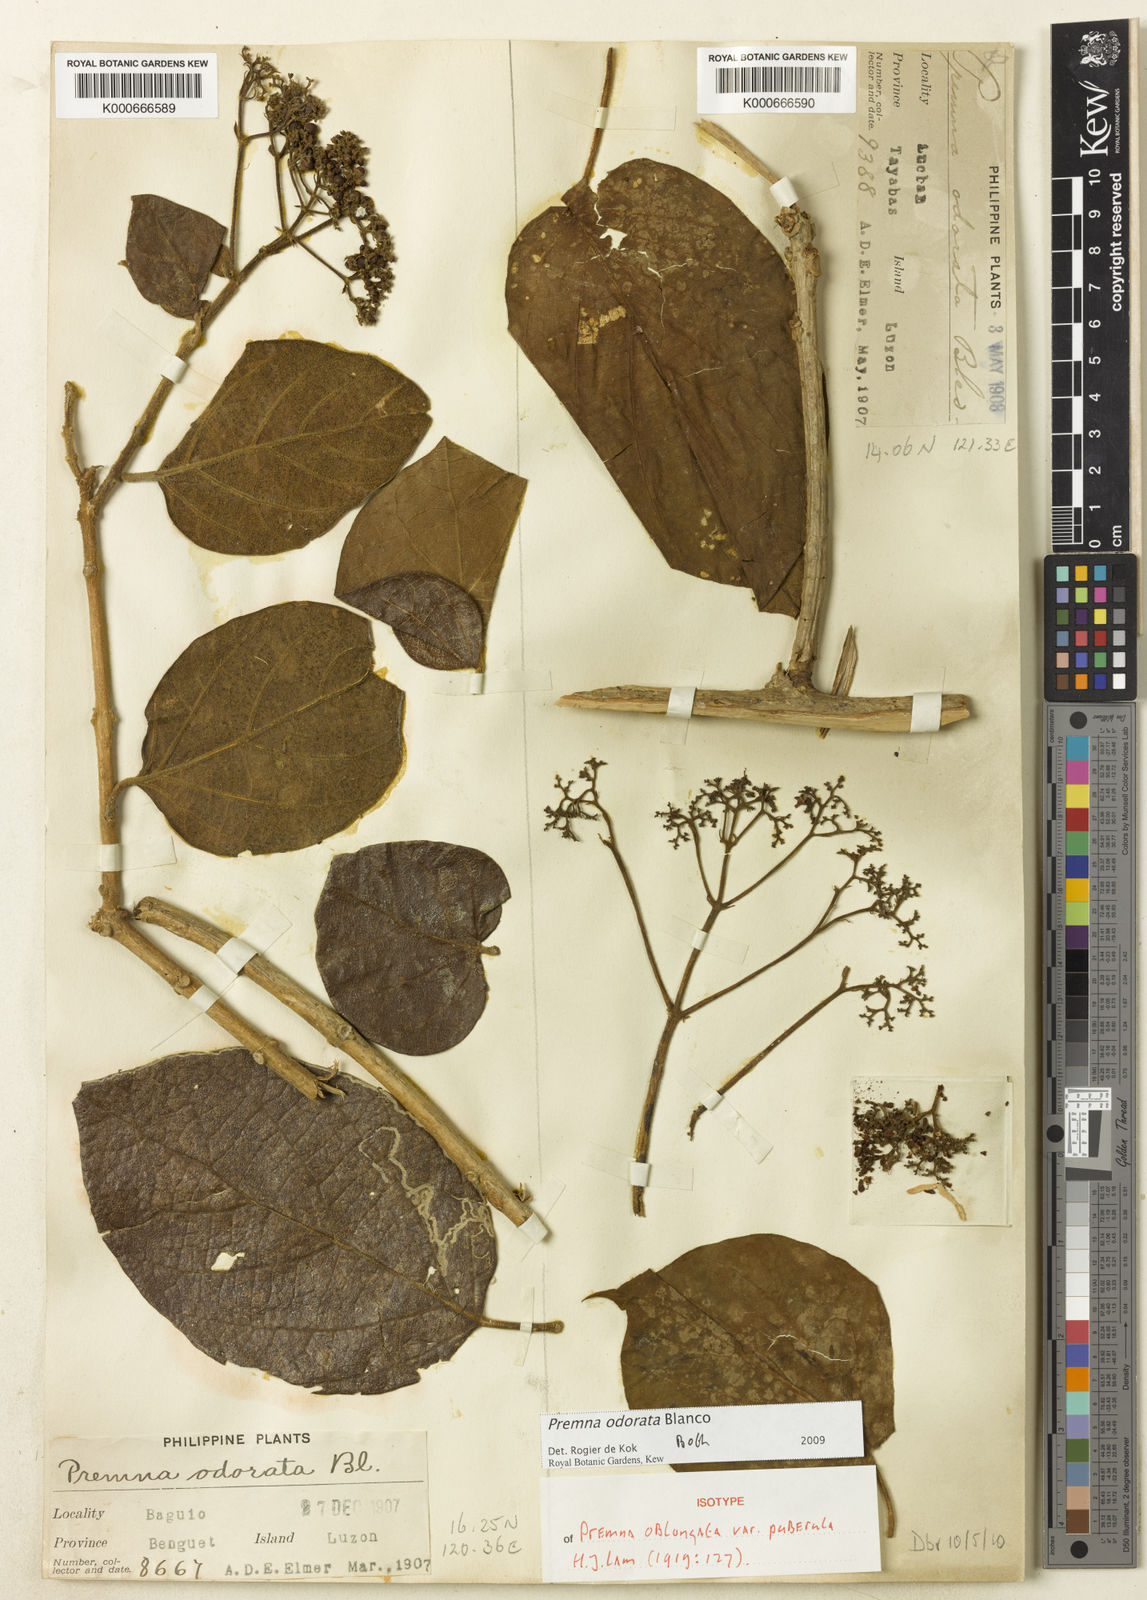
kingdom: Plantae
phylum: Tracheophyta
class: Magnoliopsida
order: Lamiales
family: Lamiaceae
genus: Premna
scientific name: Premna odorata
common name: Fragrant premna
